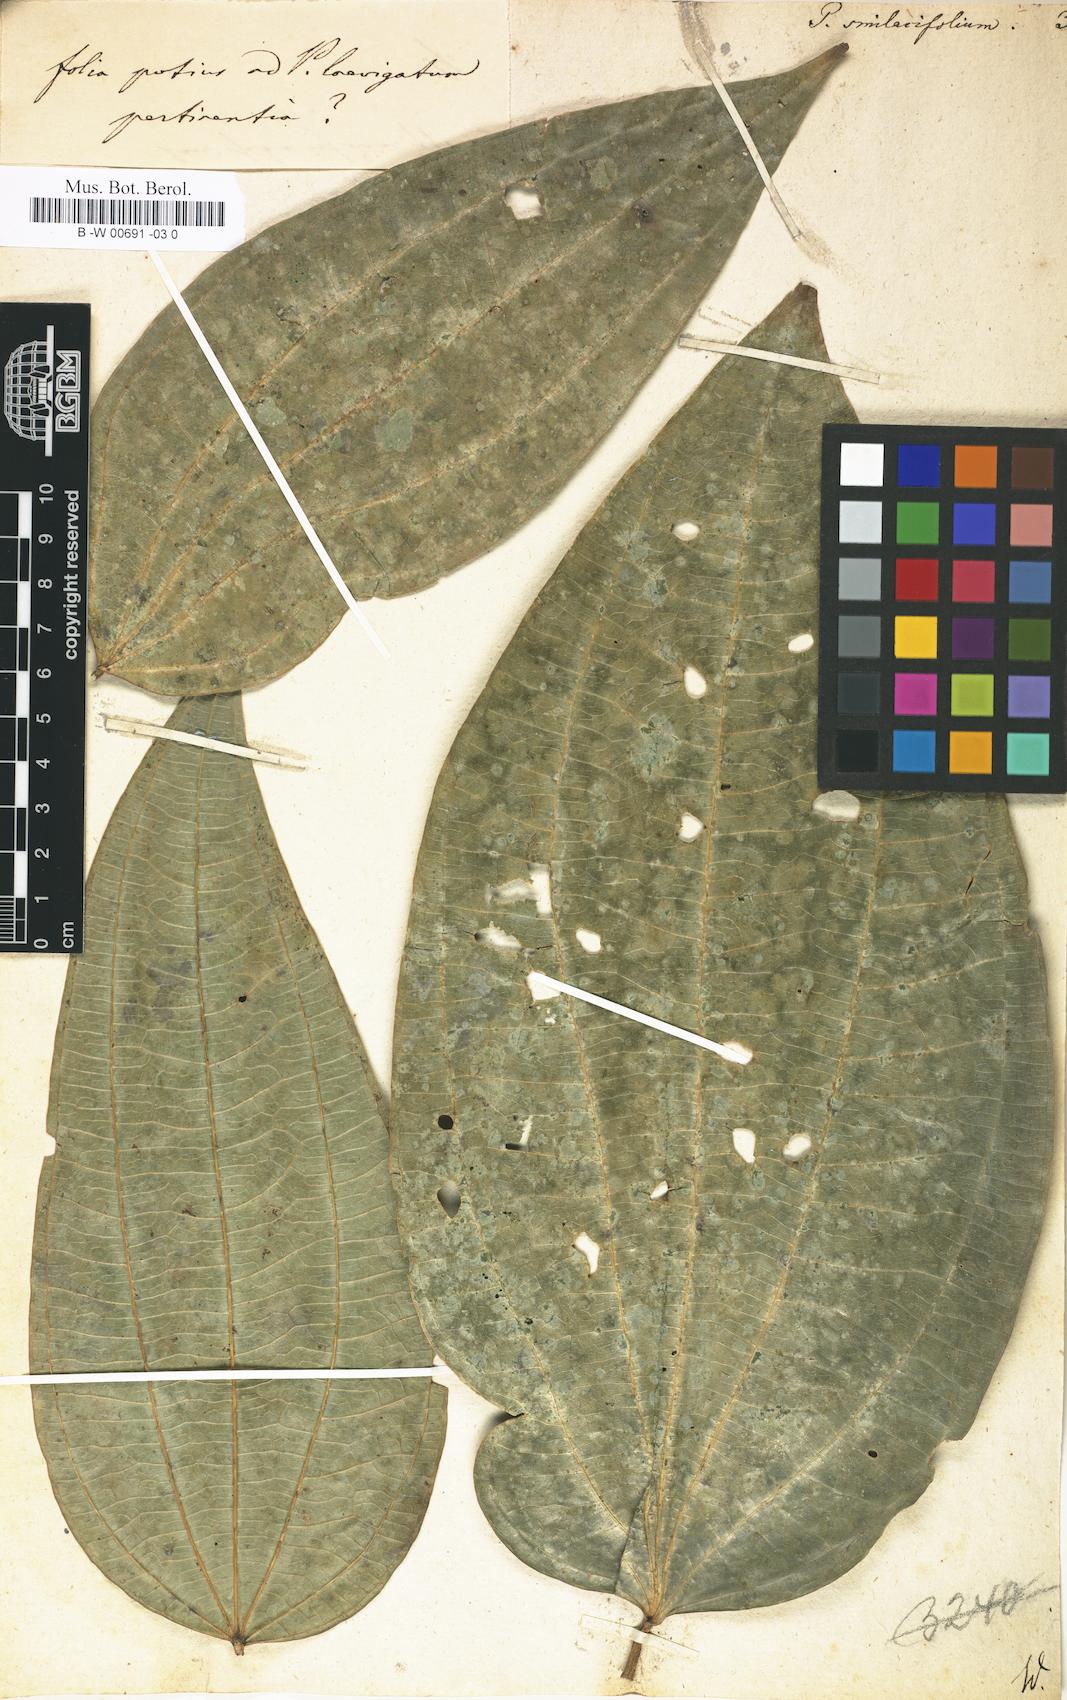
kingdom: Plantae
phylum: Tracheophyta
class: Magnoliopsida
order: Piperales
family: Piperaceae
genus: Piper
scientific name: Piper laevigatum
